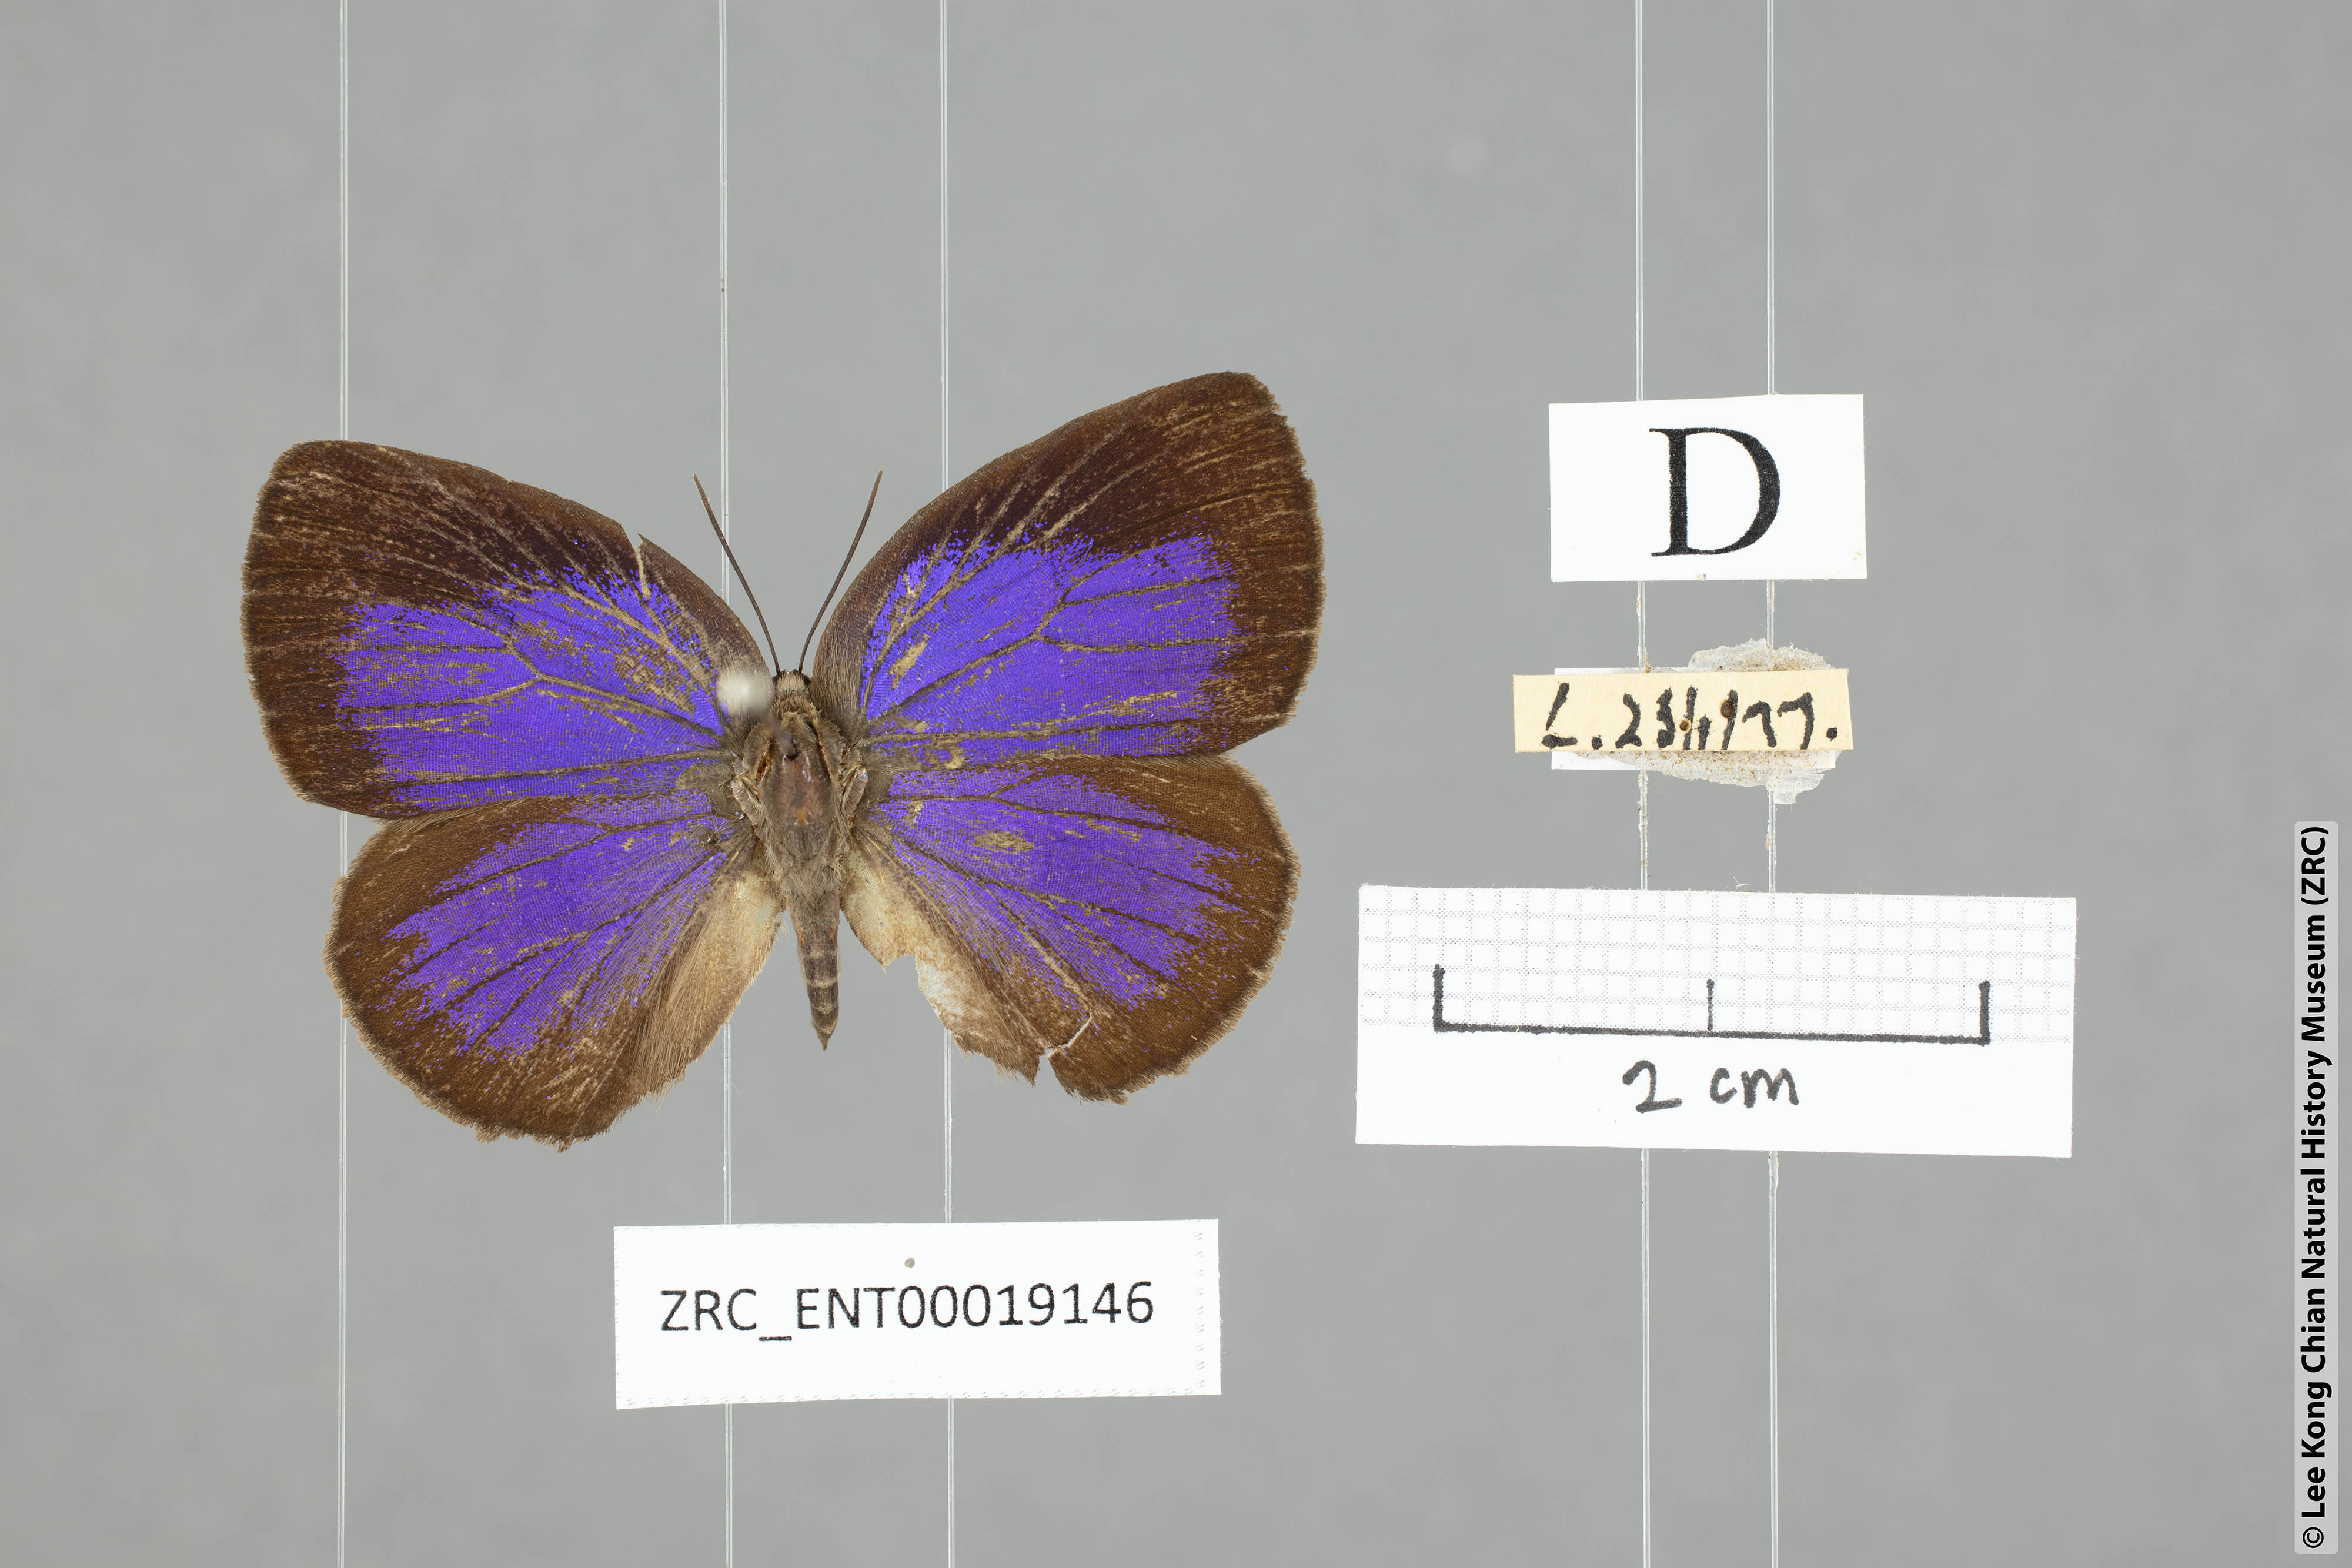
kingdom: Animalia
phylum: Arthropoda
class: Insecta
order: Lepidoptera
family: Lycaenidae
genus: Arhopala
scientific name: Arhopala amphimuta
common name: Broad yellow oakblue
